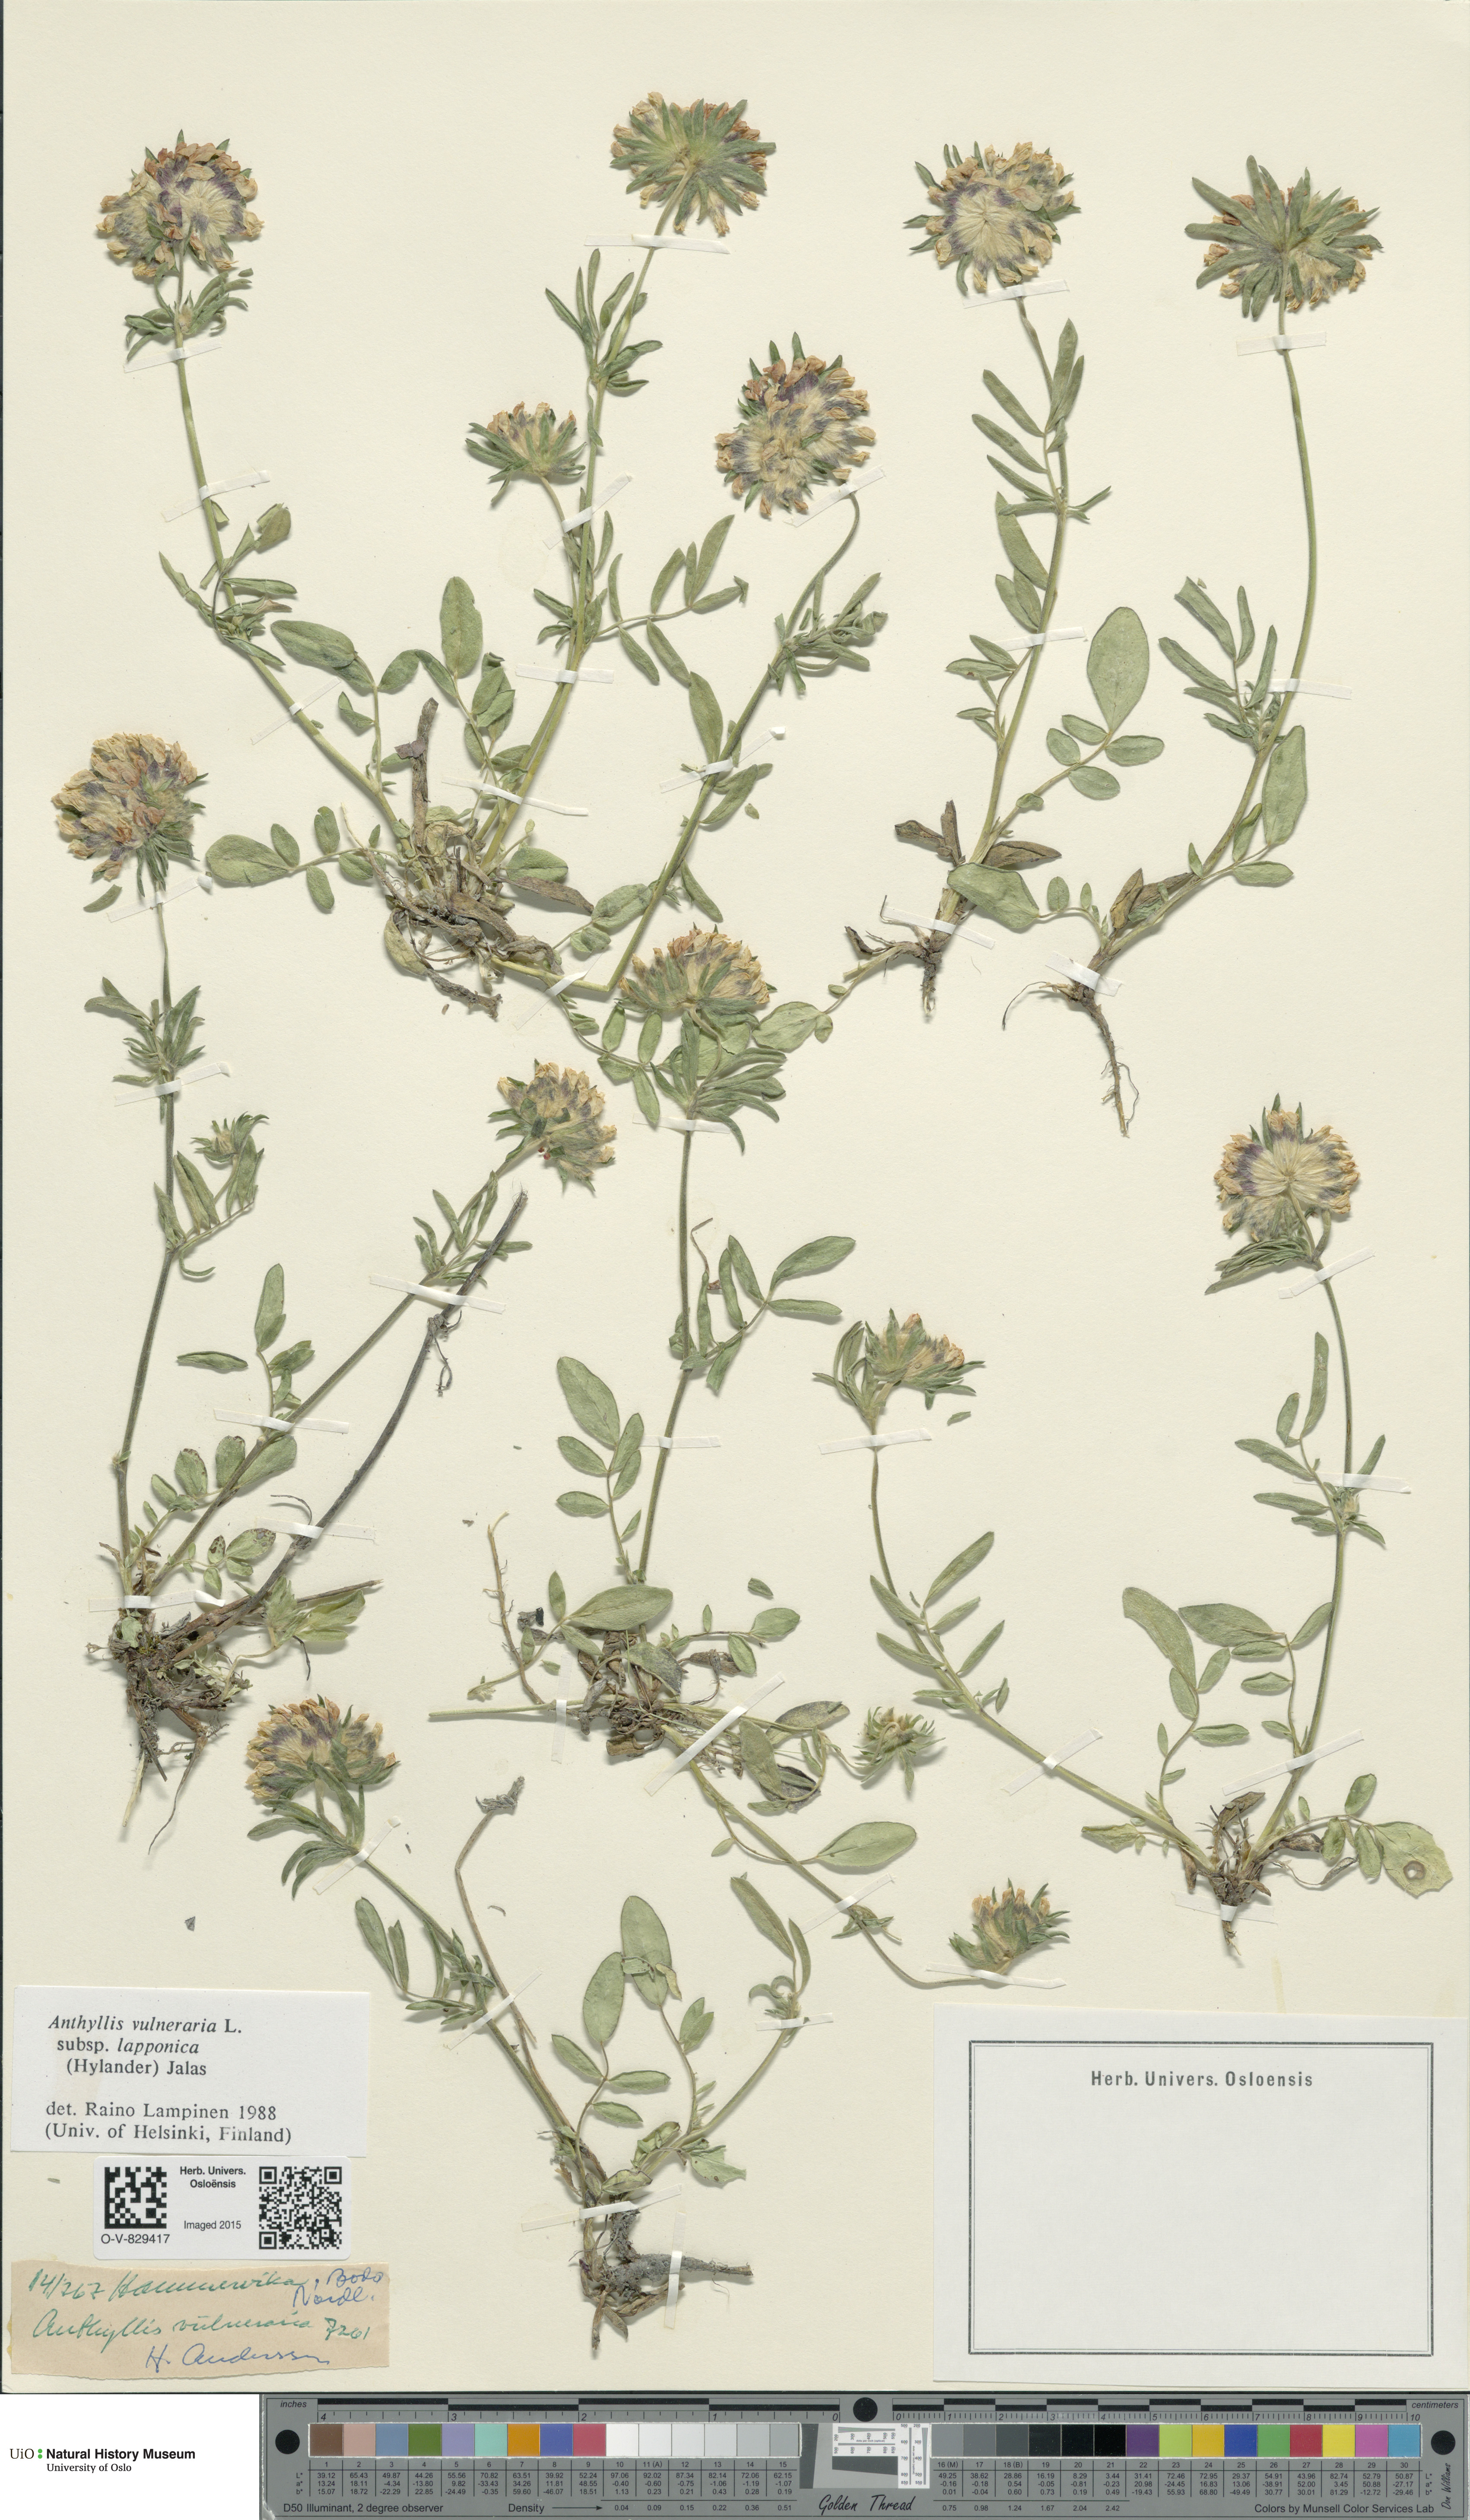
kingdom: Plantae
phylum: Tracheophyta
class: Magnoliopsida
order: Fabales
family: Fabaceae
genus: Anthyllis
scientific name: Anthyllis vulneraria
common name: Kidney vetch
